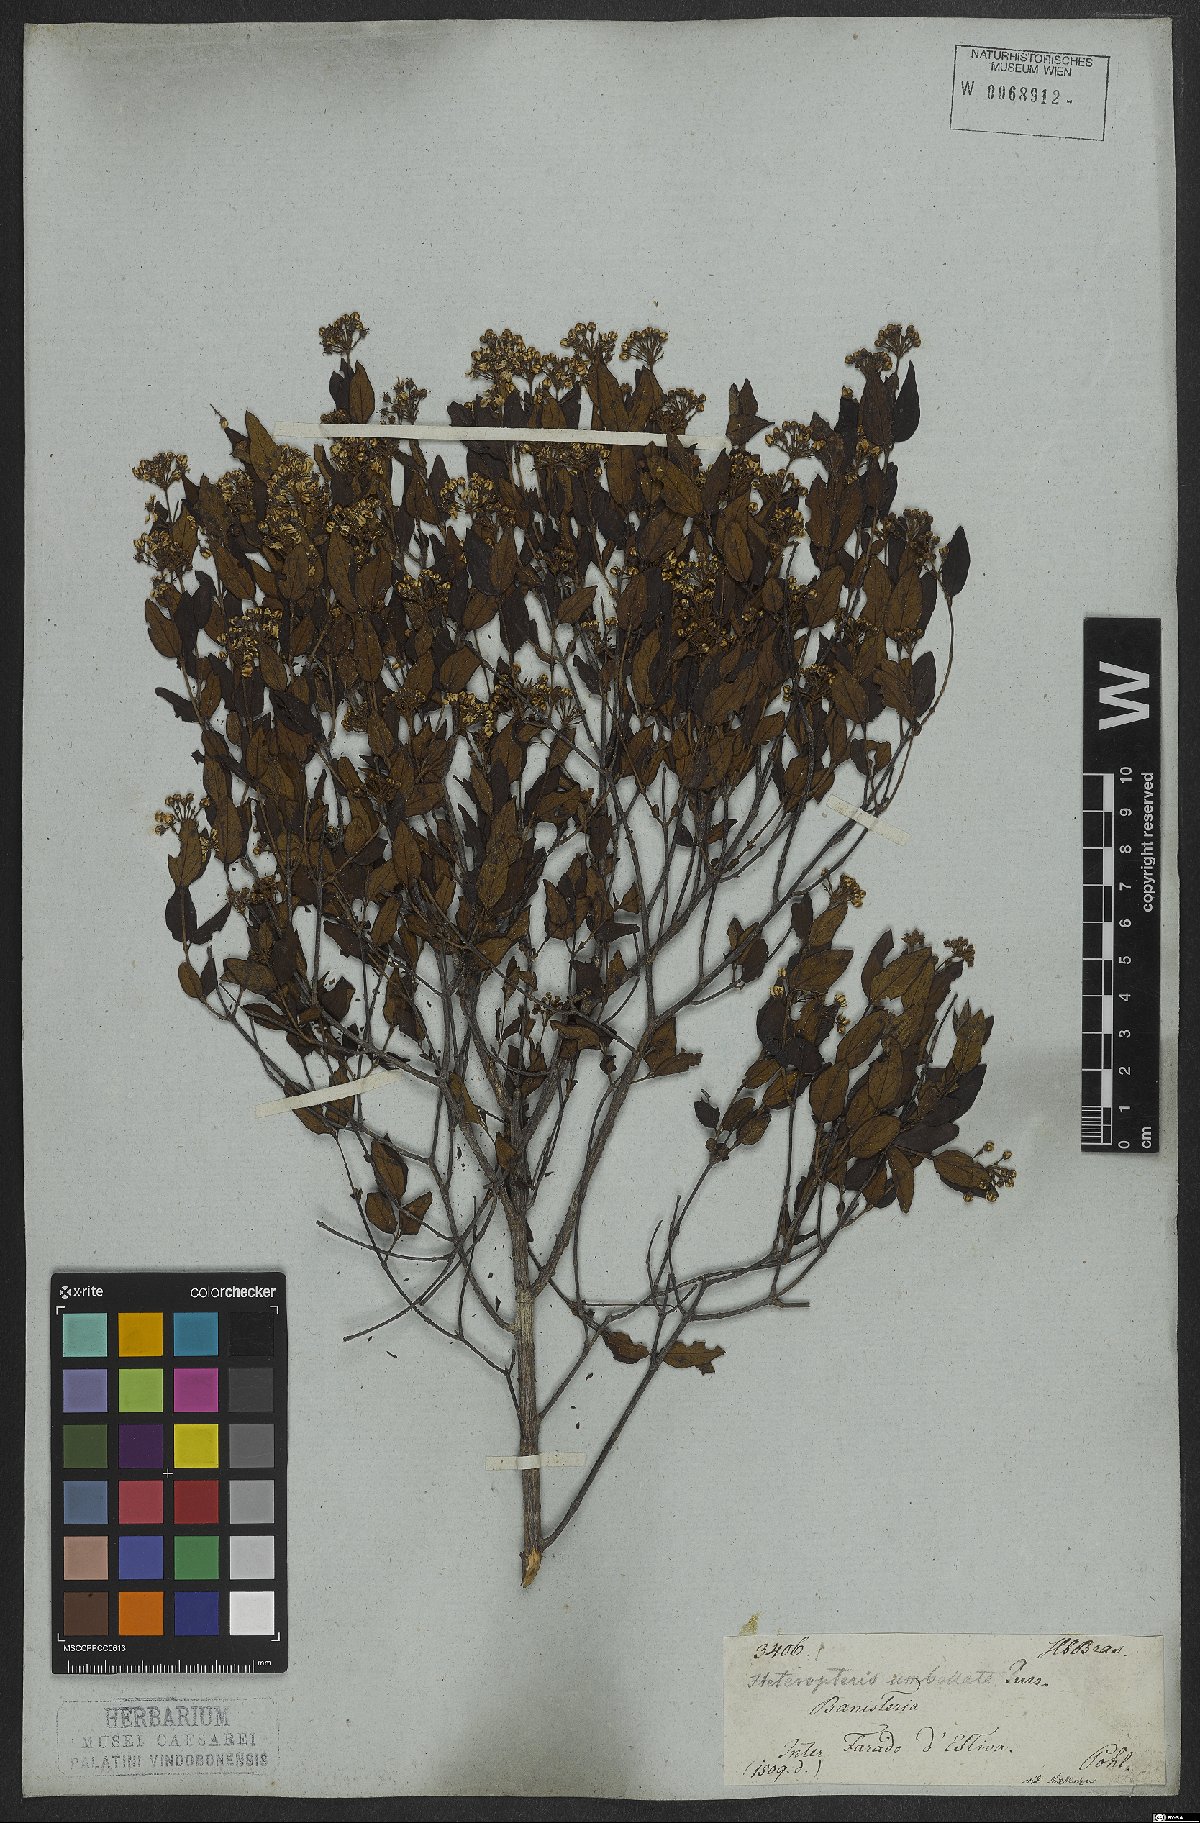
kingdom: Plantae
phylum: Tracheophyta
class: Magnoliopsida
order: Malpighiales
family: Malpighiaceae
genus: Heteropterys
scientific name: Heteropterys umbellata
